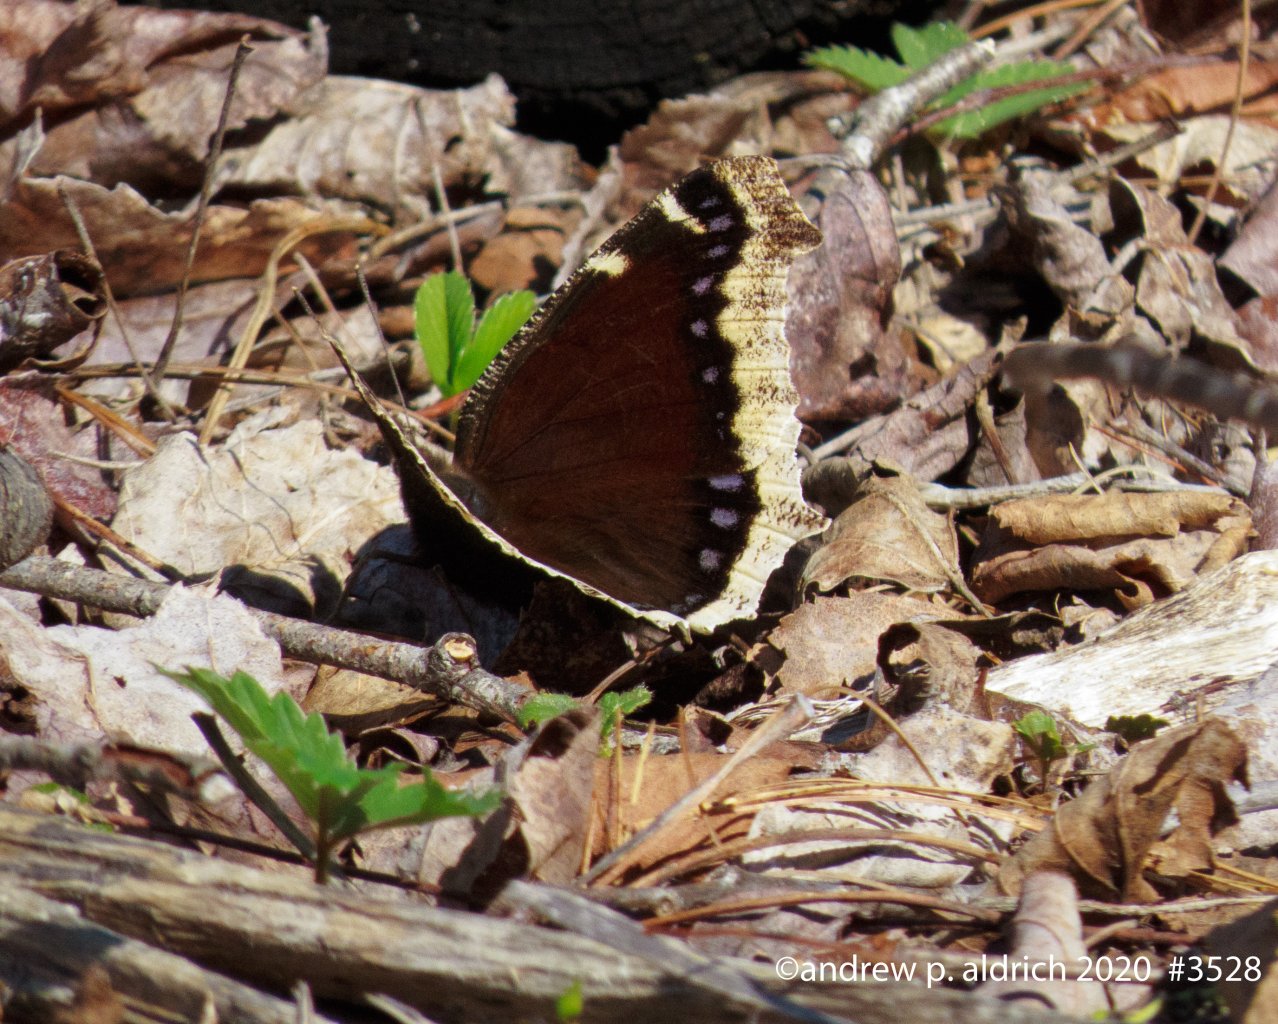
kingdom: Animalia
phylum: Arthropoda
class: Insecta
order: Lepidoptera
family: Nymphalidae
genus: Nymphalis
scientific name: Nymphalis antiopa
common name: Mourning Cloak
